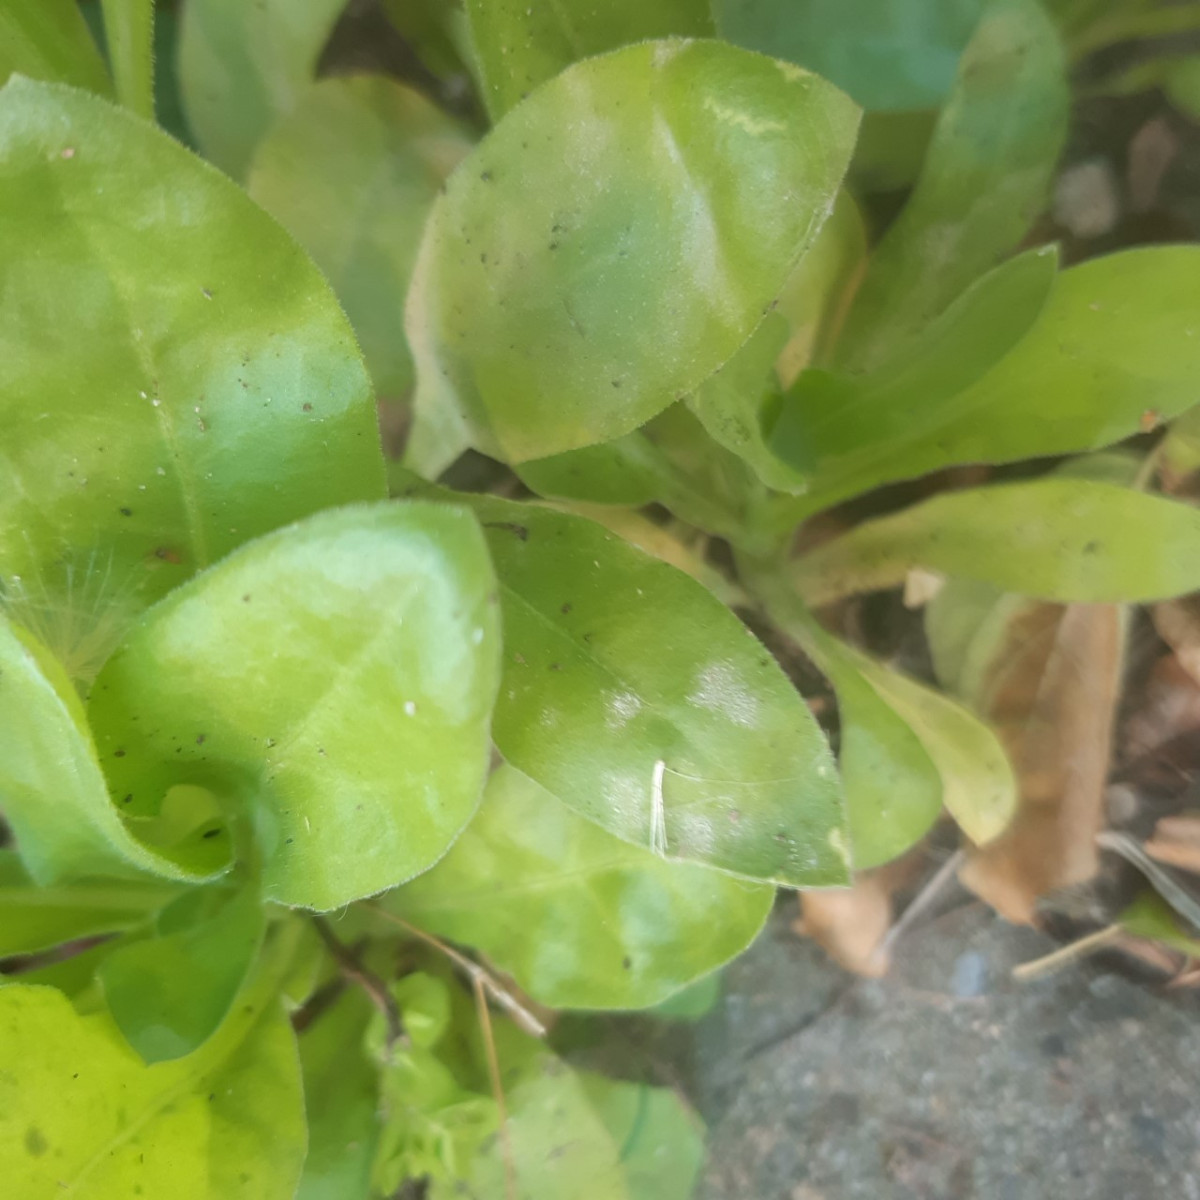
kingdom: Fungi
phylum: Ascomycota
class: Leotiomycetes
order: Helotiales
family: Erysiphaceae
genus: Podosphaera
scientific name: Podosphaera fusca
